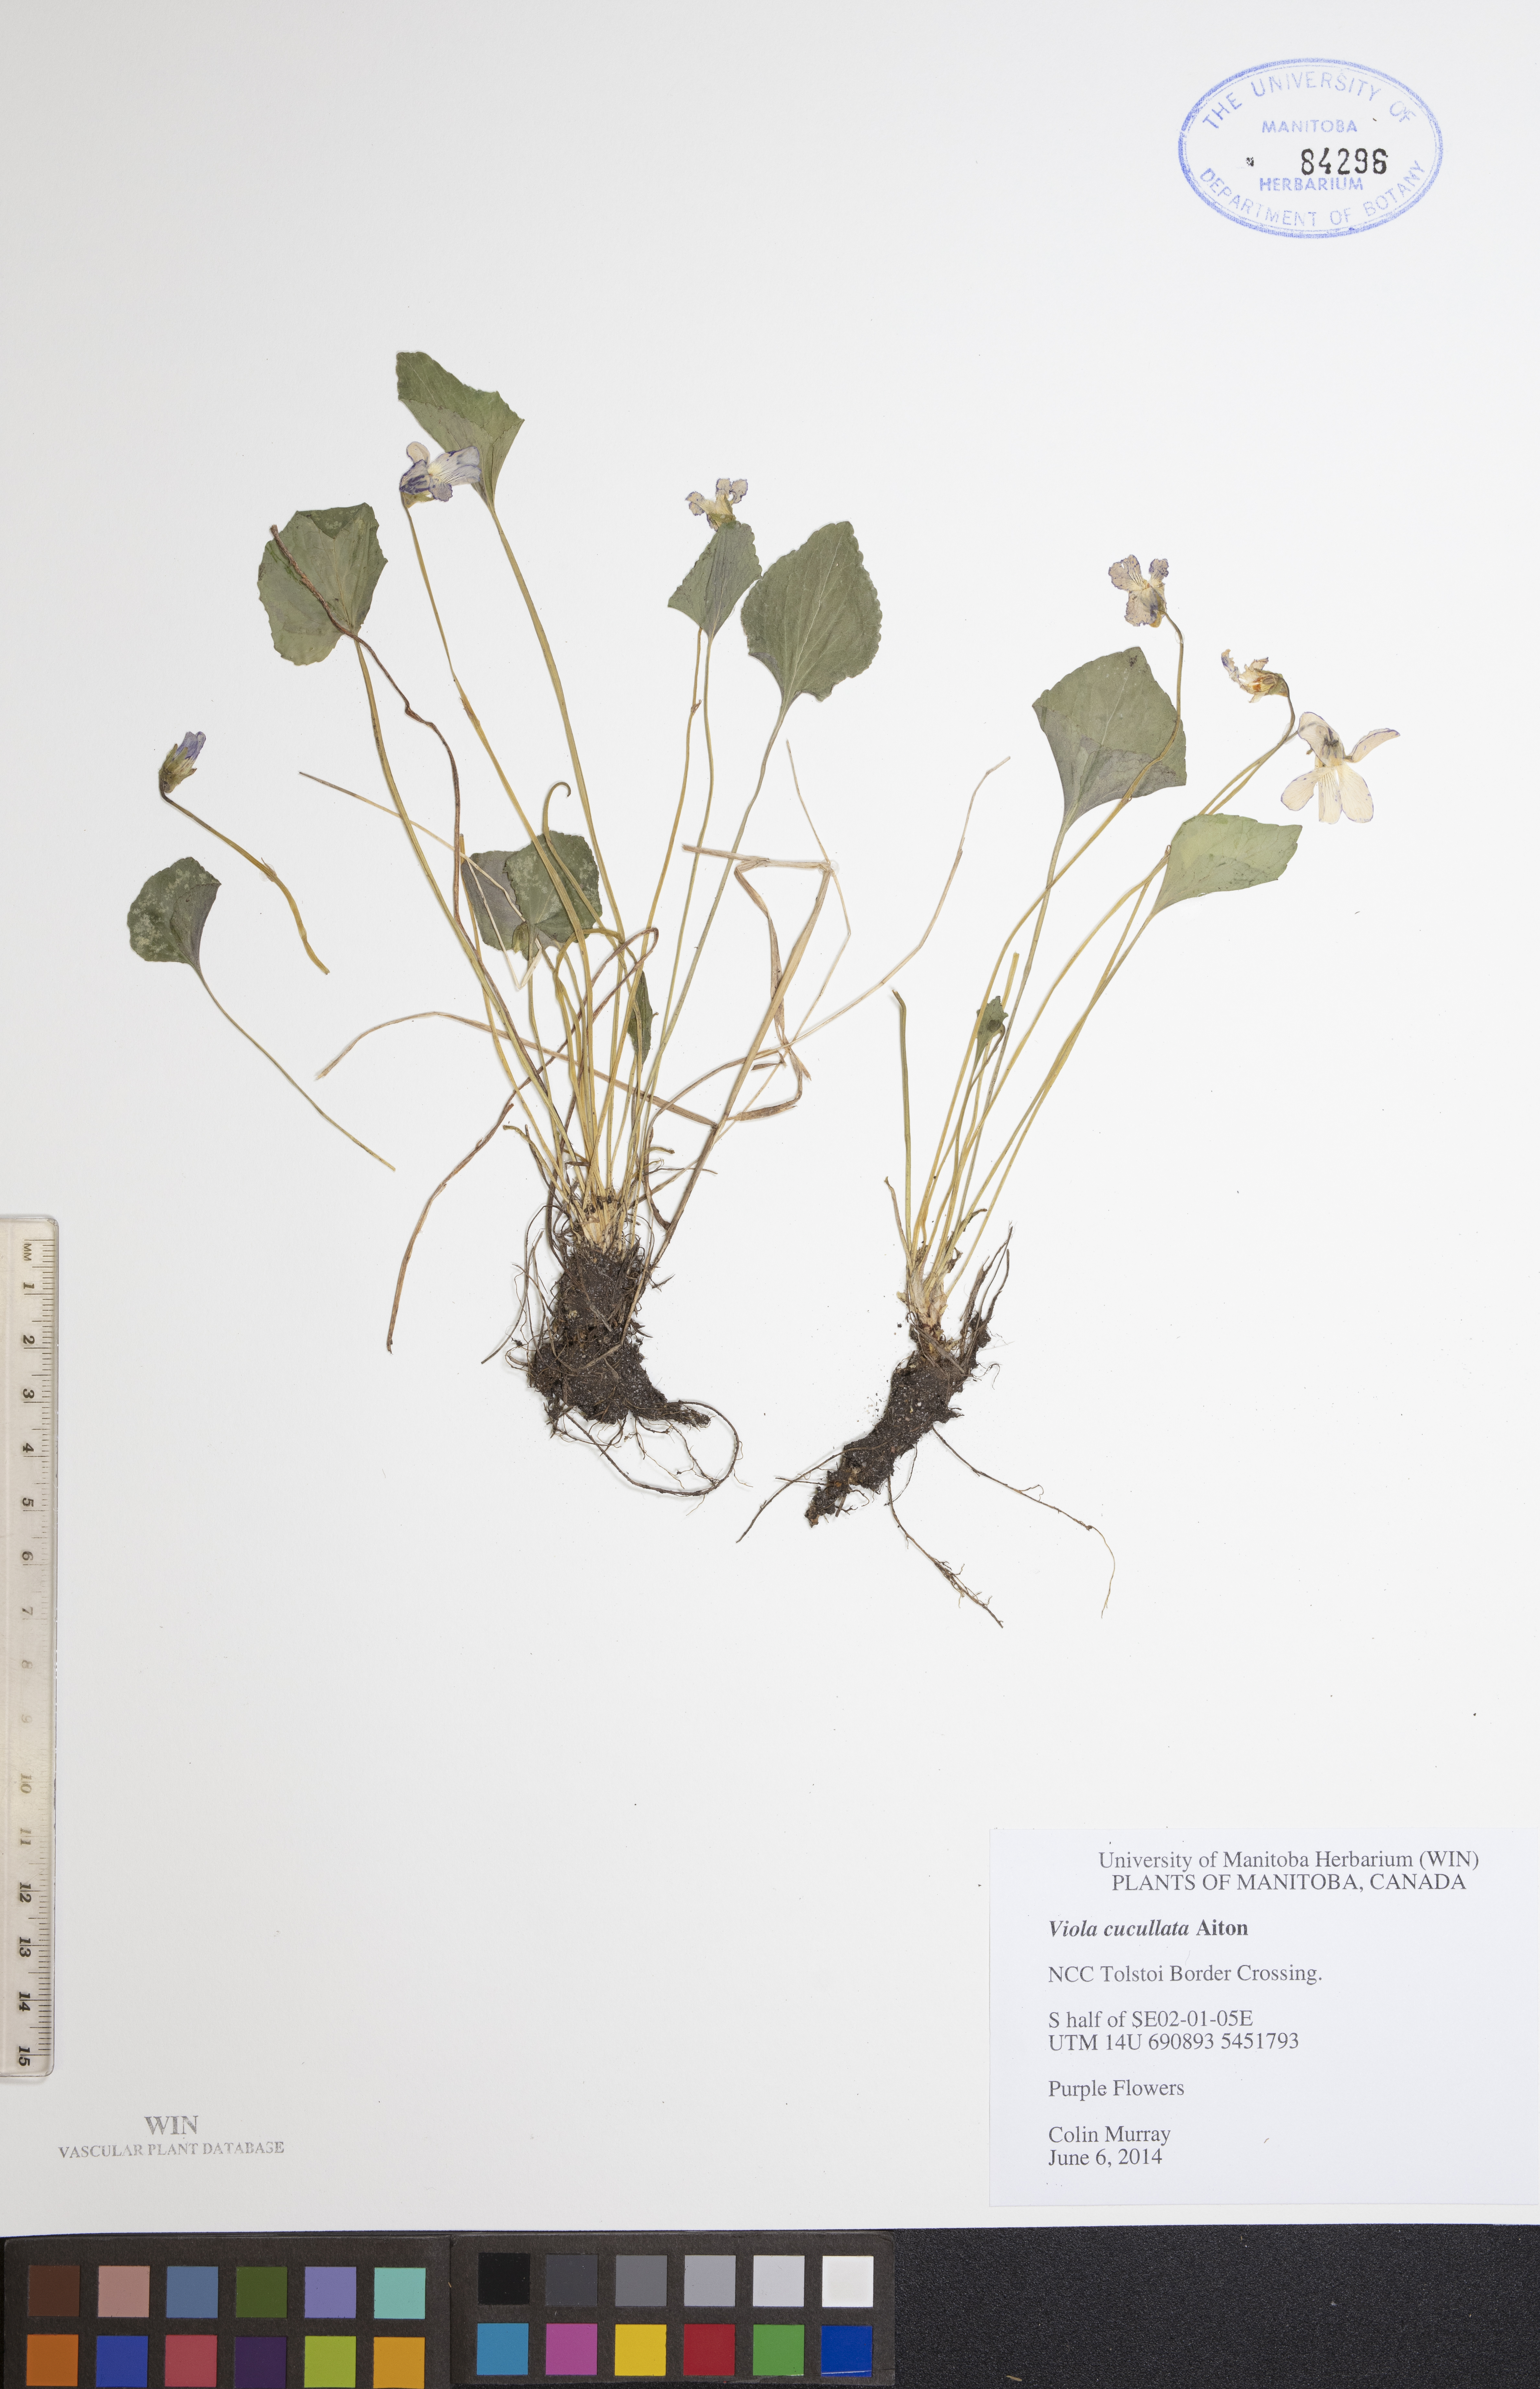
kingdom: Plantae
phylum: Tracheophyta
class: Magnoliopsida
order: Malpighiales
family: Violaceae
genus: Viola
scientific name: Viola cucullata
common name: Marsh blue violet
